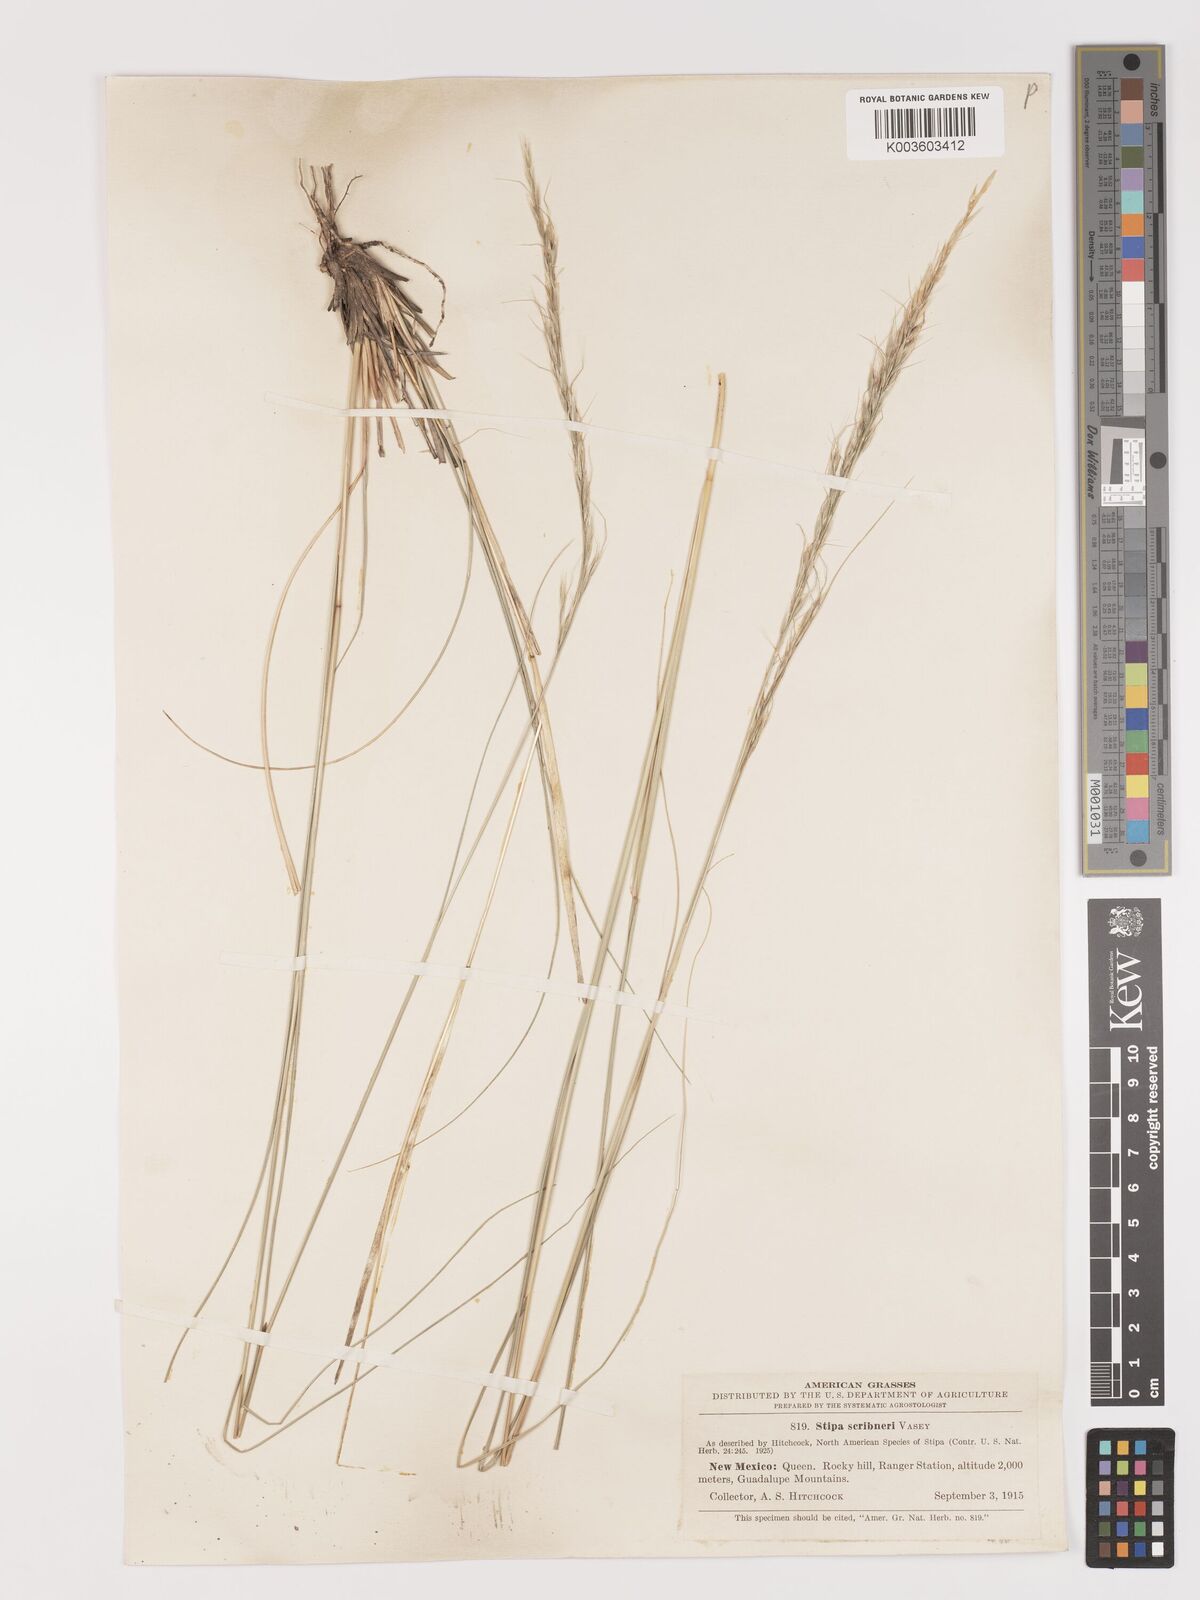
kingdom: Plantae
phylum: Tracheophyta
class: Liliopsida
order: Poales
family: Poaceae
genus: Eriocoma
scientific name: Eriocoma scribneri
